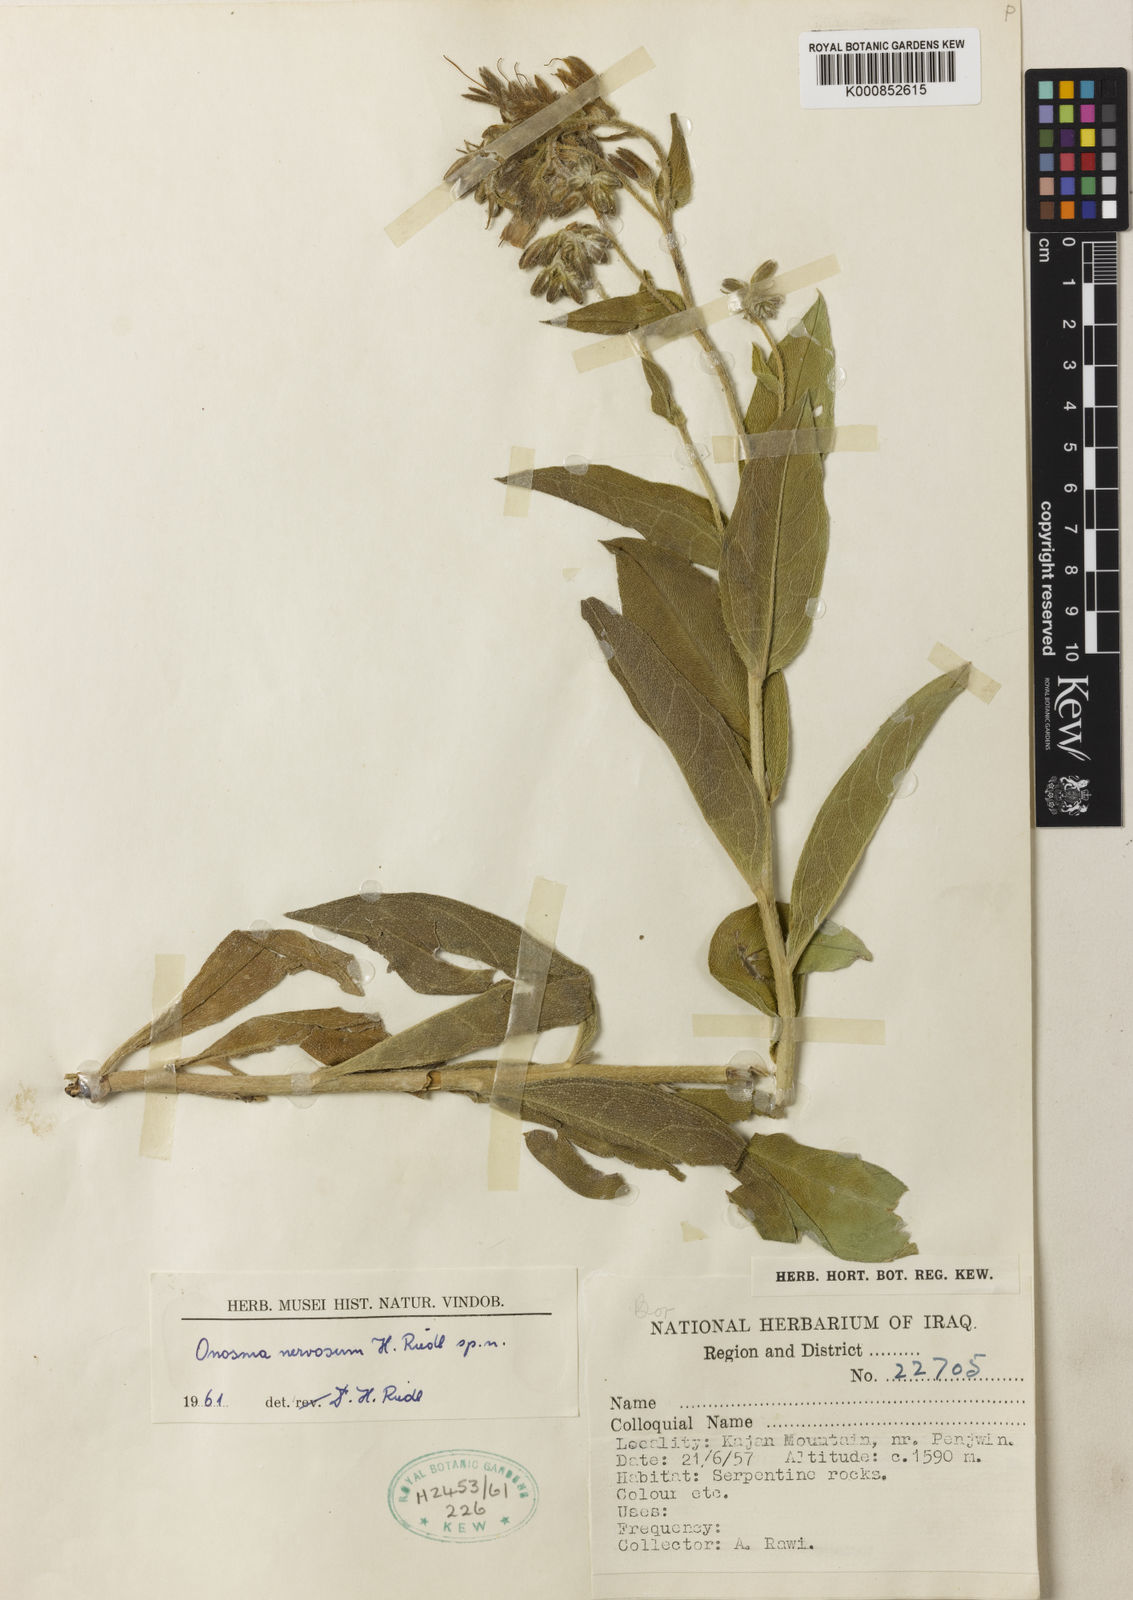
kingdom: Plantae
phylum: Tracheophyta
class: Magnoliopsida
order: Boraginales
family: Boraginaceae
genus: Onosma
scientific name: Onosma nervosa
